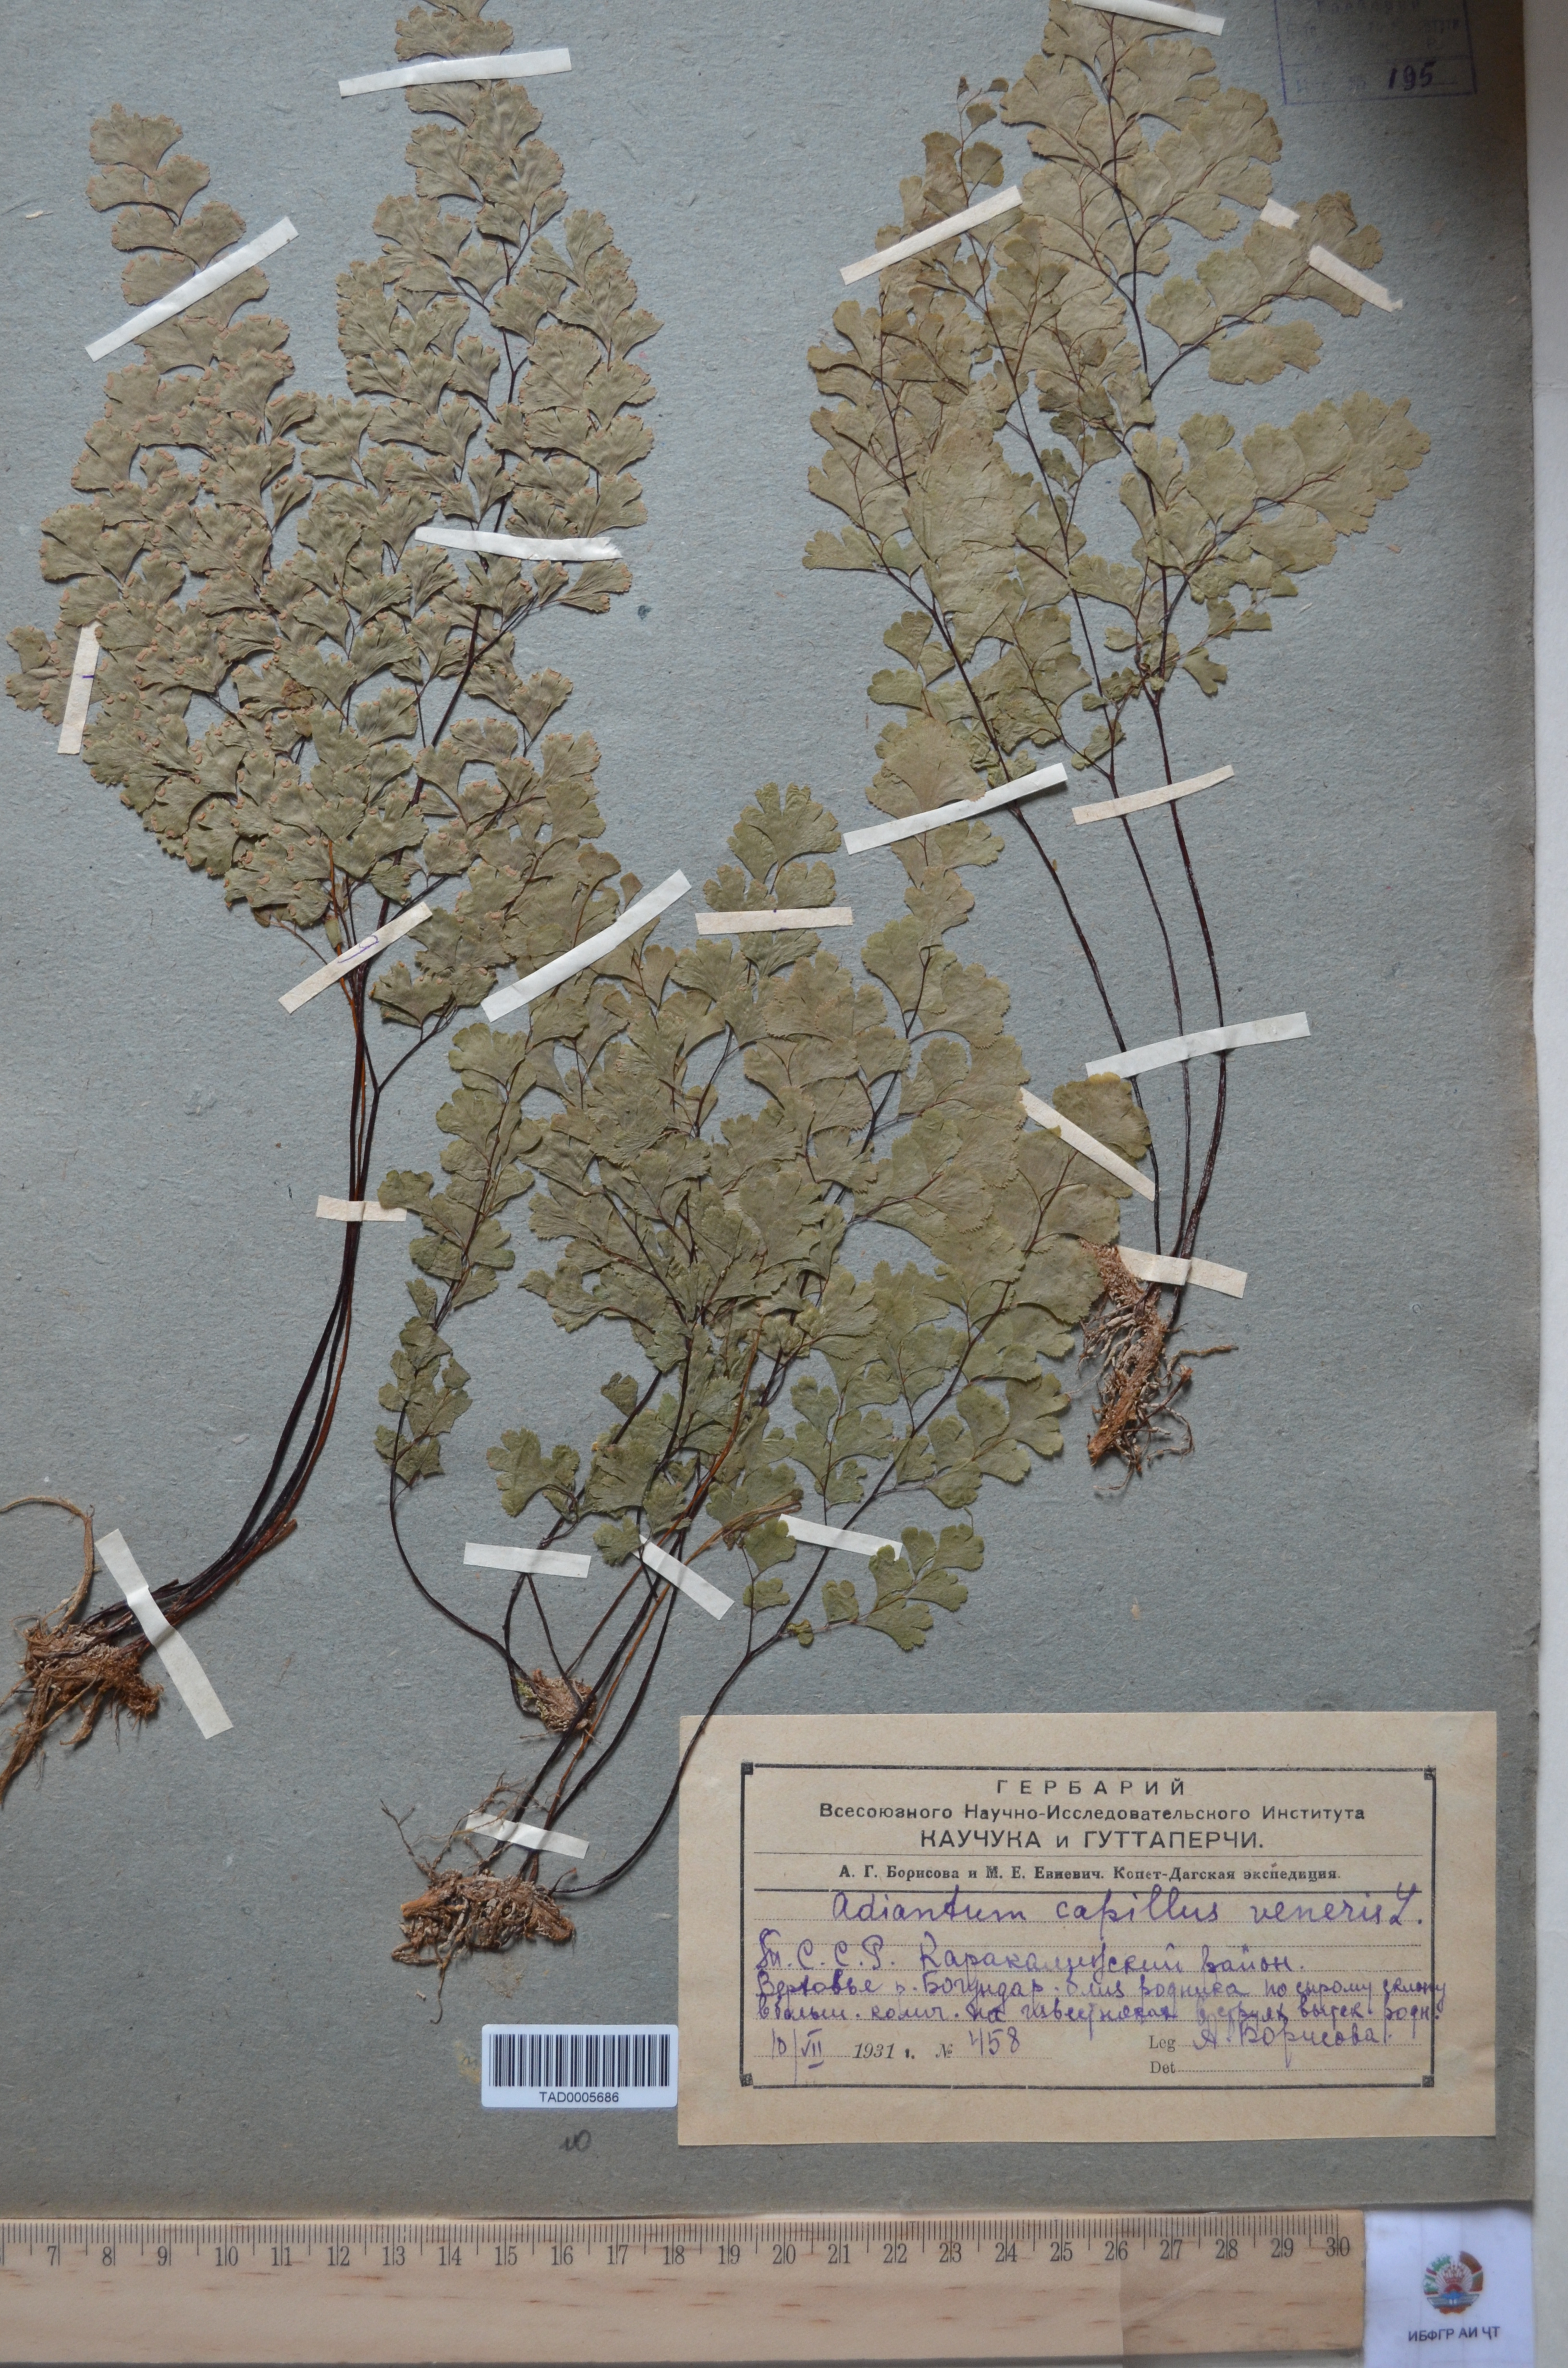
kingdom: Plantae
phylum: Tracheophyta
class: Polypodiopsida
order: Polypodiales
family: Pteridaceae
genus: Adiantum
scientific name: Adiantum capillus-veneris
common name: Maidenhair fern
